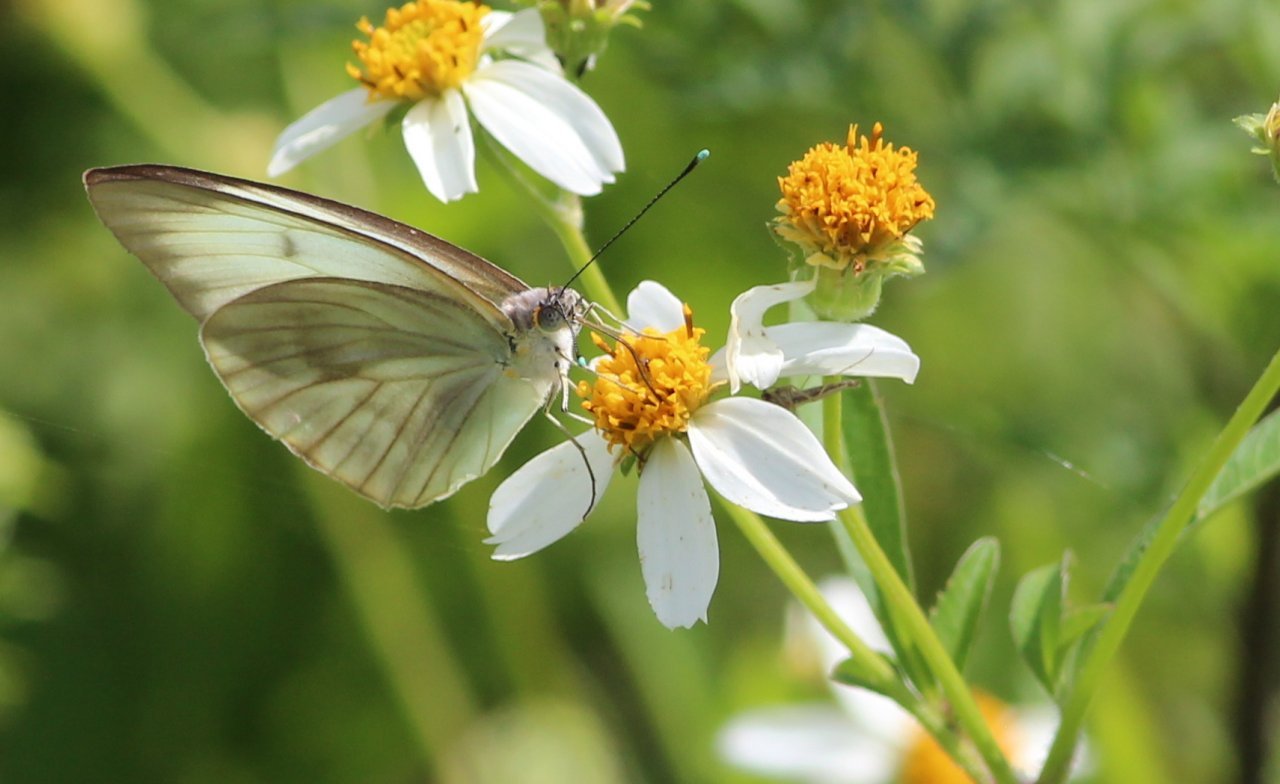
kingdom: Animalia
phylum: Arthropoda
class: Insecta
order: Lepidoptera
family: Pieridae
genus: Ascia
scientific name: Ascia monuste
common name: Great Southern White
